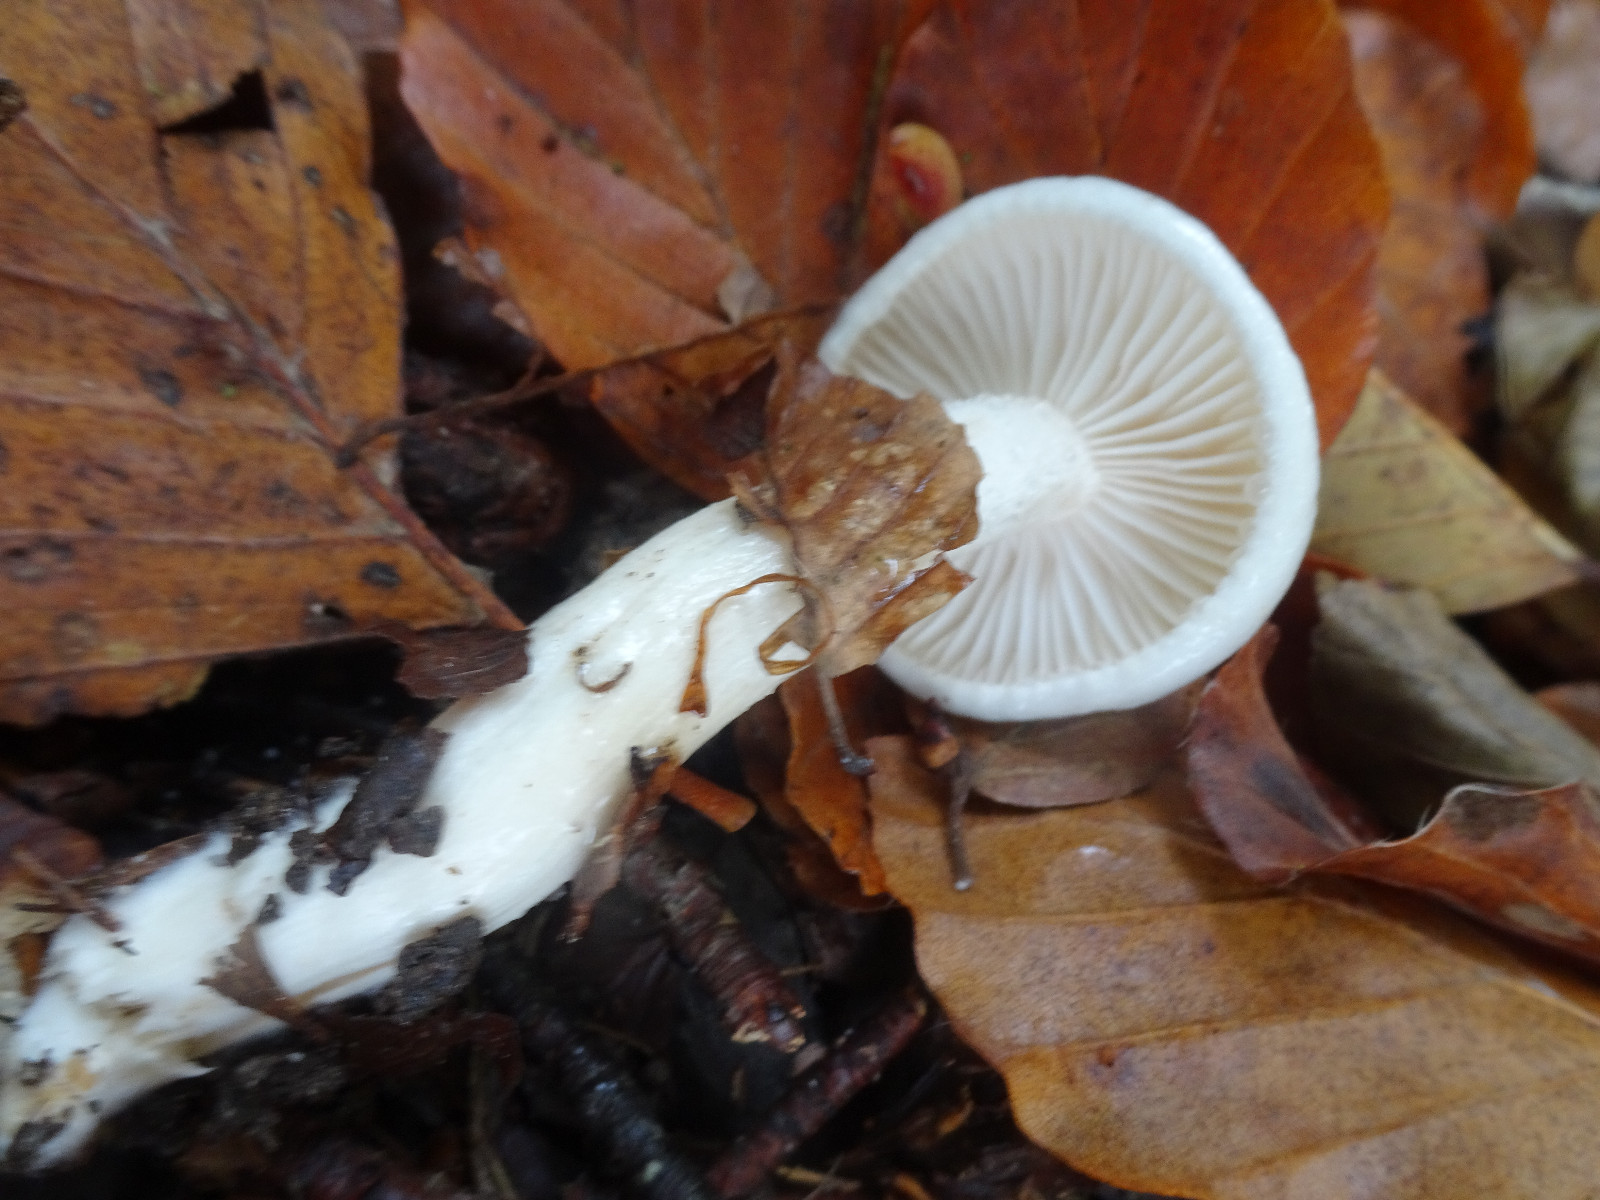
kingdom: Fungi
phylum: Basidiomycota
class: Agaricomycetes
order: Agaricales
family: Hygrophoraceae
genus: Hygrophorus
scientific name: Hygrophorus
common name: sneglehat
